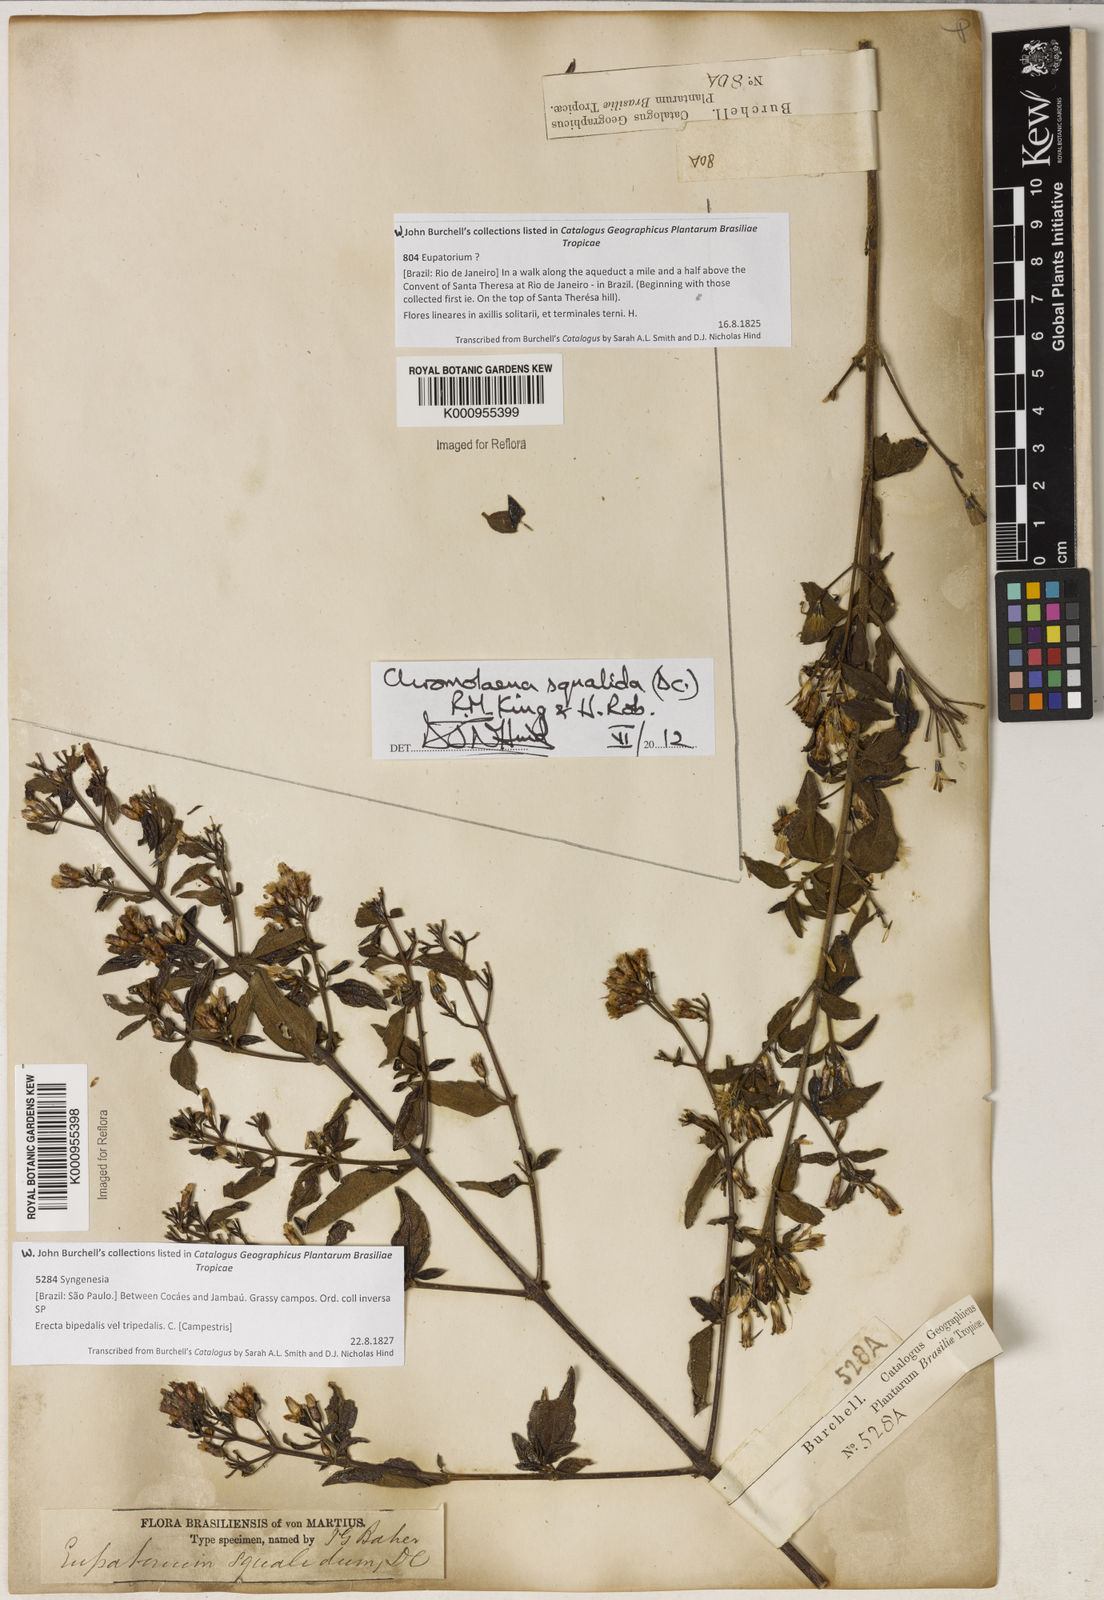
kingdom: Plantae
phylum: Tracheophyta
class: Magnoliopsida
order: Asterales
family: Asteraceae
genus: Chromolaena
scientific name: Chromolaena squalida
